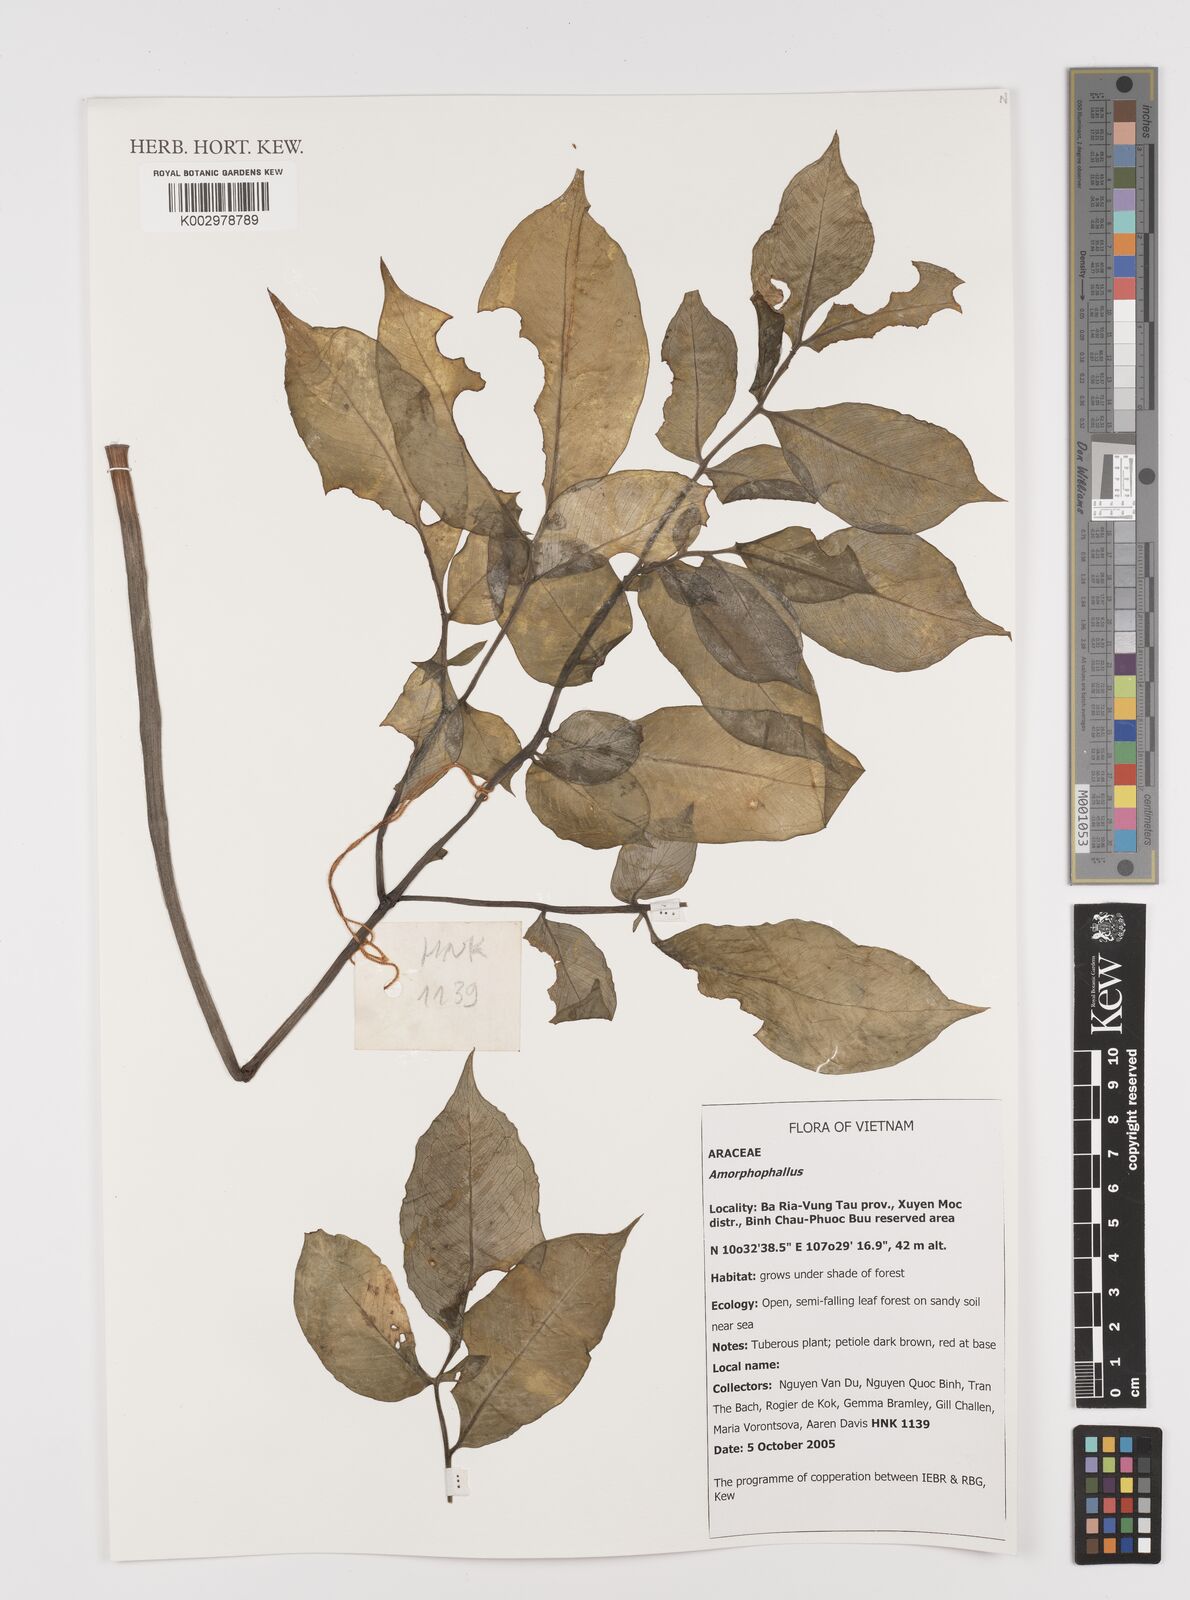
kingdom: Plantae
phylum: Tracheophyta
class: Liliopsida
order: Alismatales
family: Araceae
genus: Amorphophallus
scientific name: Amorphophallus
